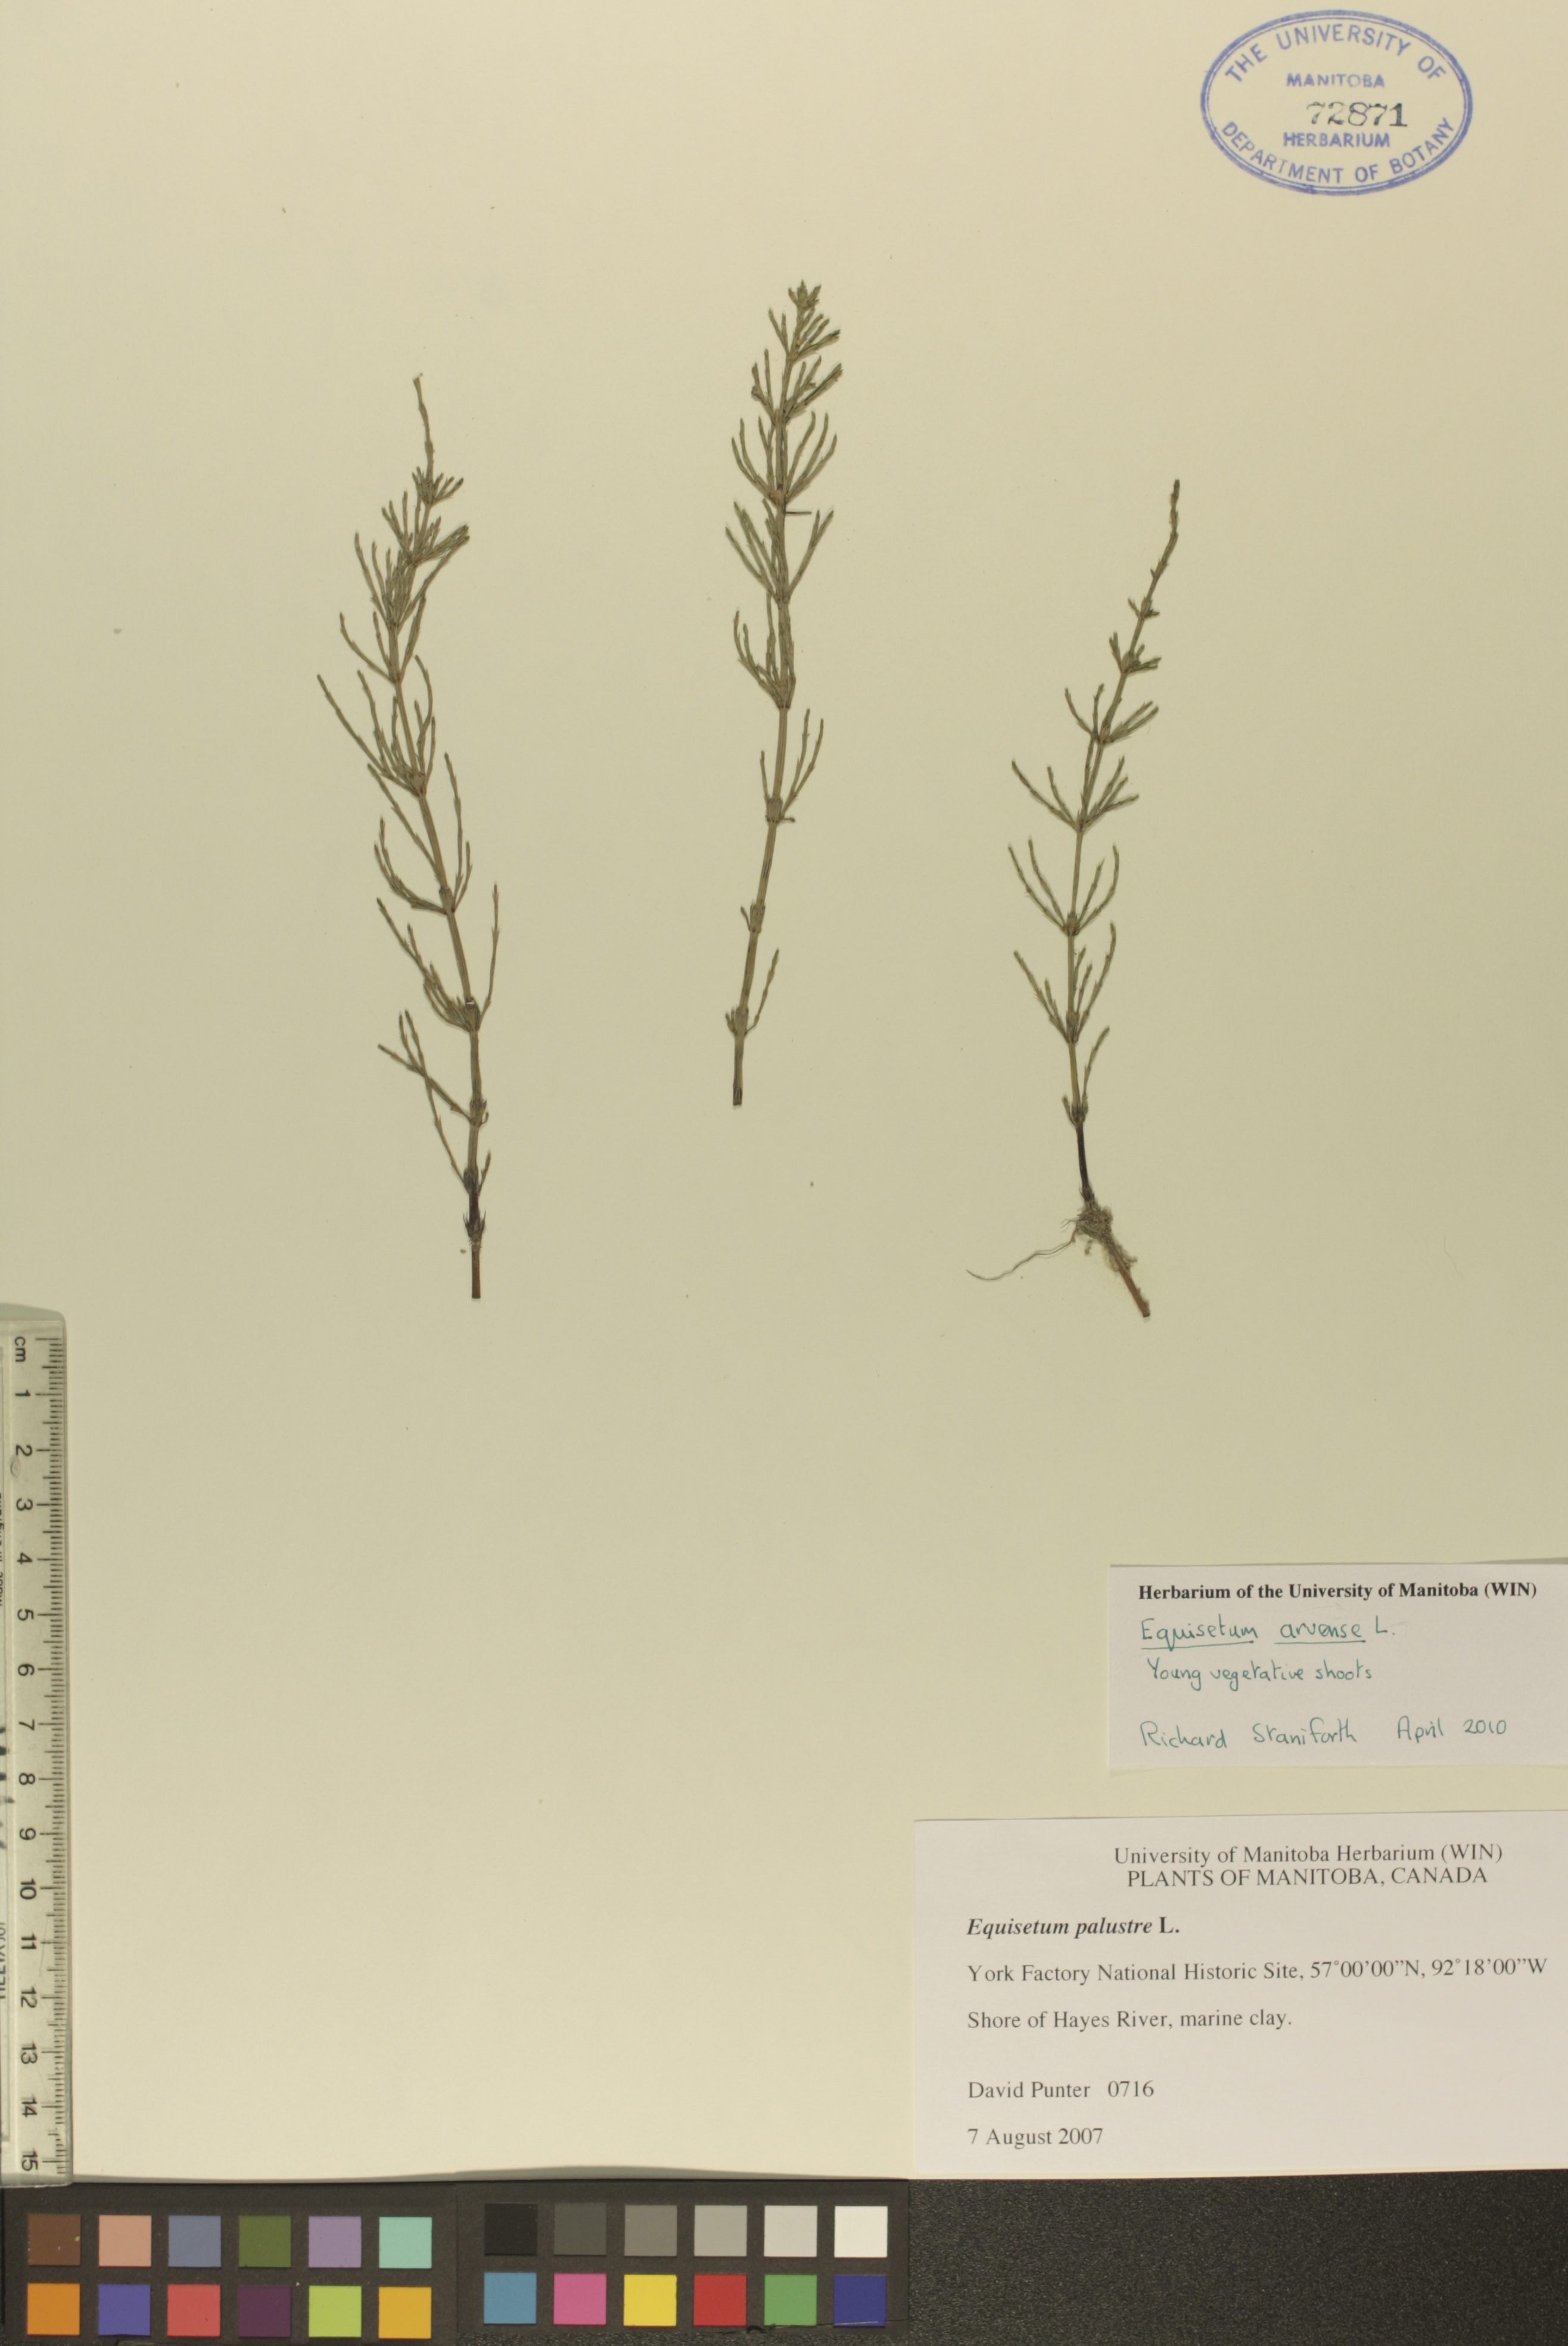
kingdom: Plantae
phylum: Tracheophyta
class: Polypodiopsida
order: Equisetales
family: Equisetaceae
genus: Equisetum
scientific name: Equisetum arvense
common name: Field horsetail
